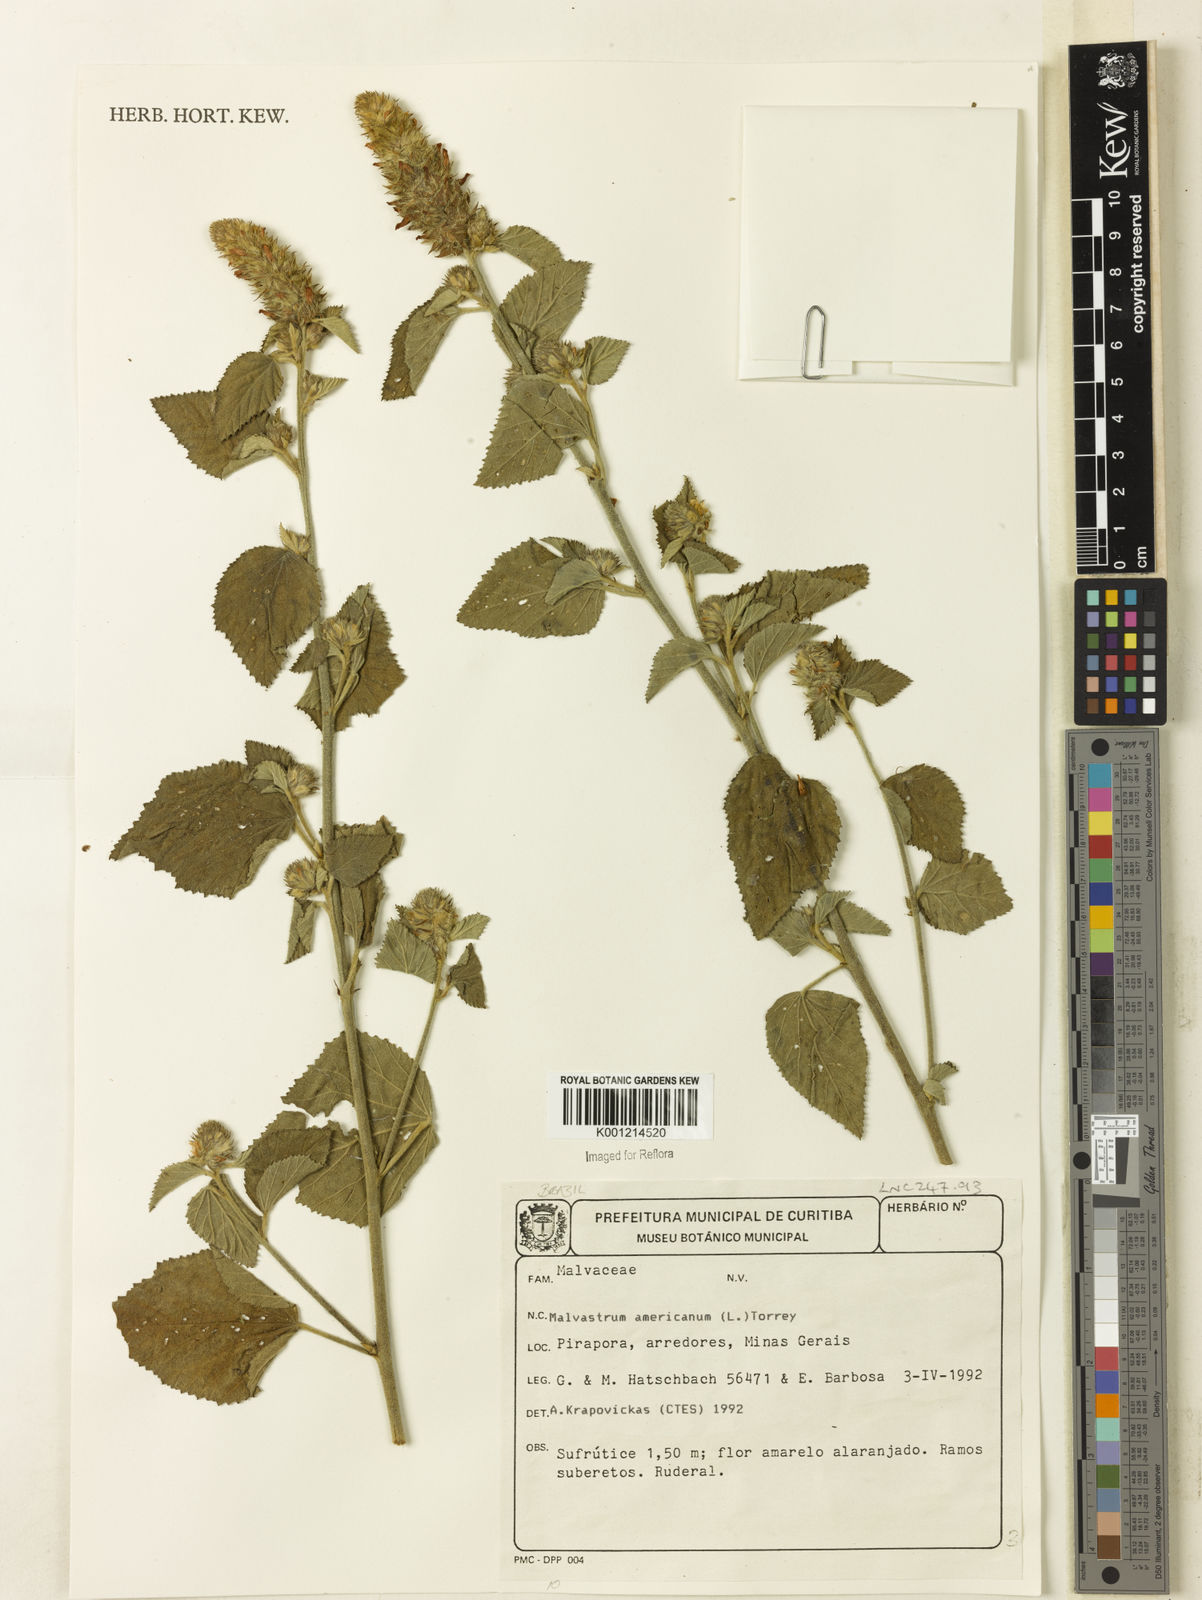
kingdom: Plantae
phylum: Tracheophyta
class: Magnoliopsida
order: Malvales
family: Malvaceae
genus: Malvastrum
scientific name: Malvastrum americanum
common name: Spiked malvastrum
